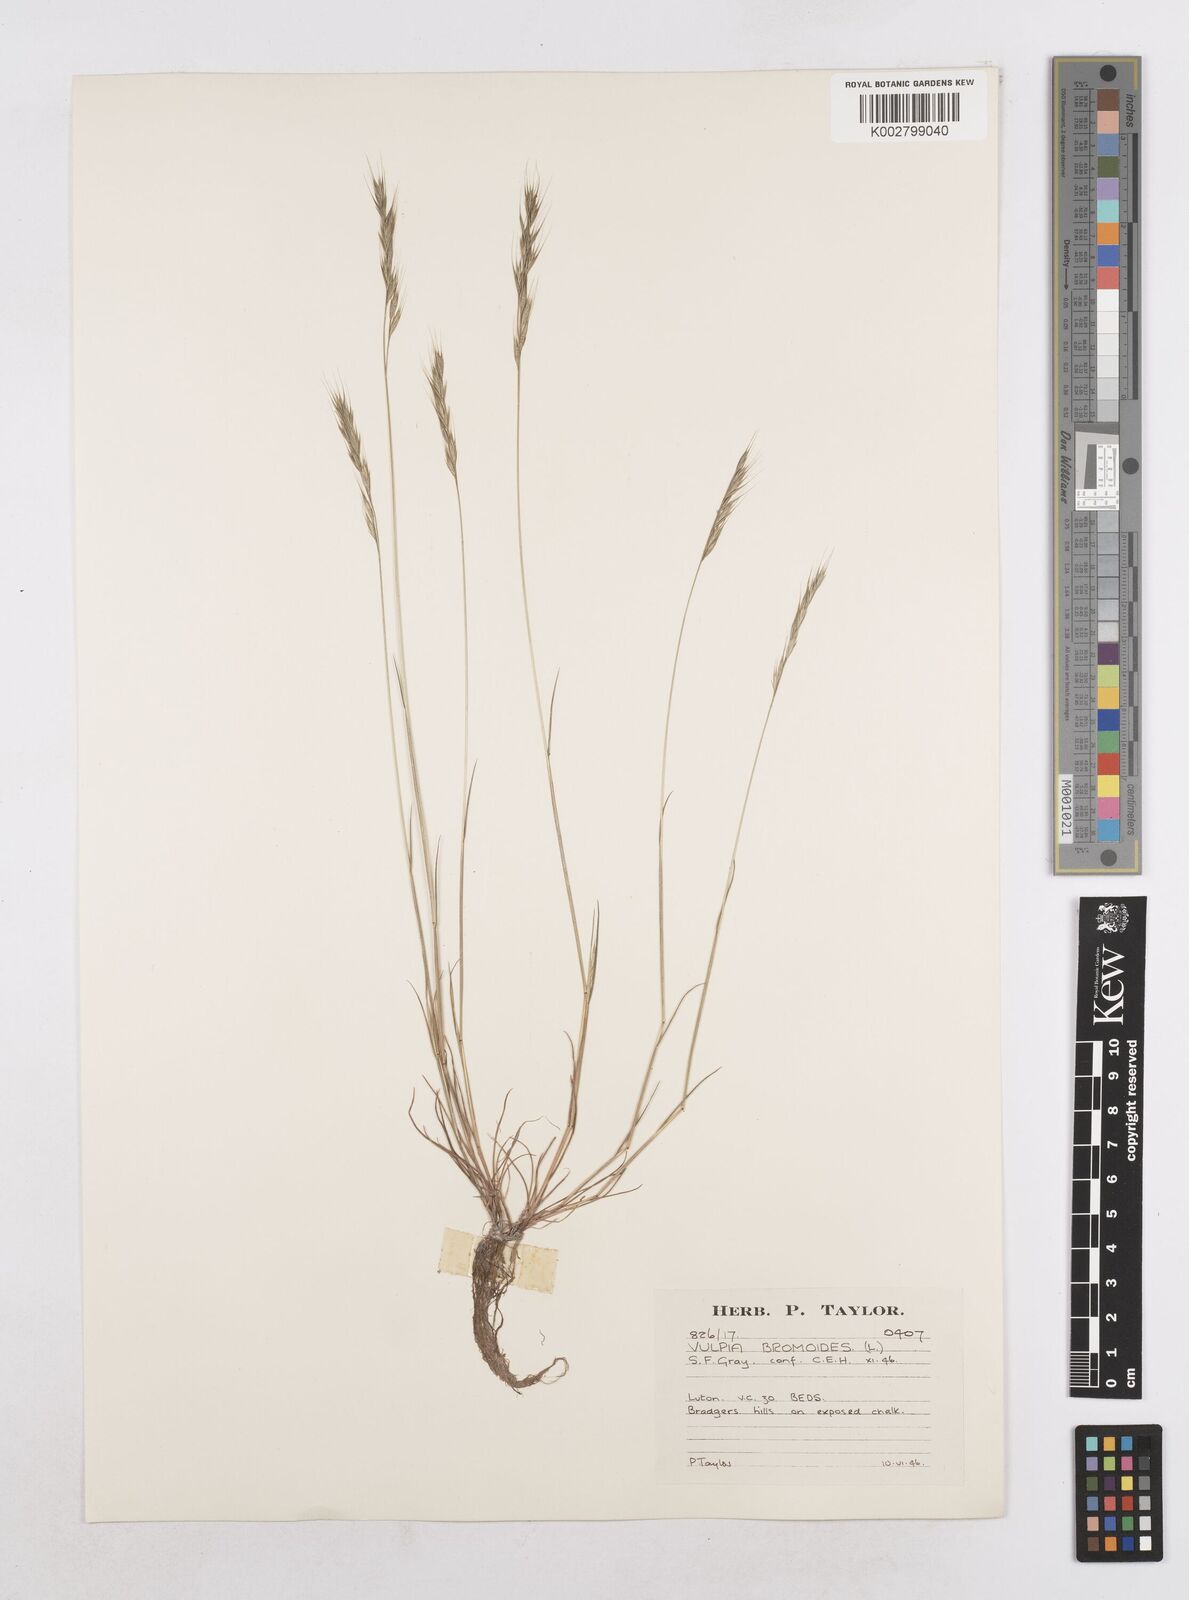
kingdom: Plantae
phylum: Tracheophyta
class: Liliopsida
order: Poales
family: Poaceae
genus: Festuca
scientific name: Festuca bromoides
